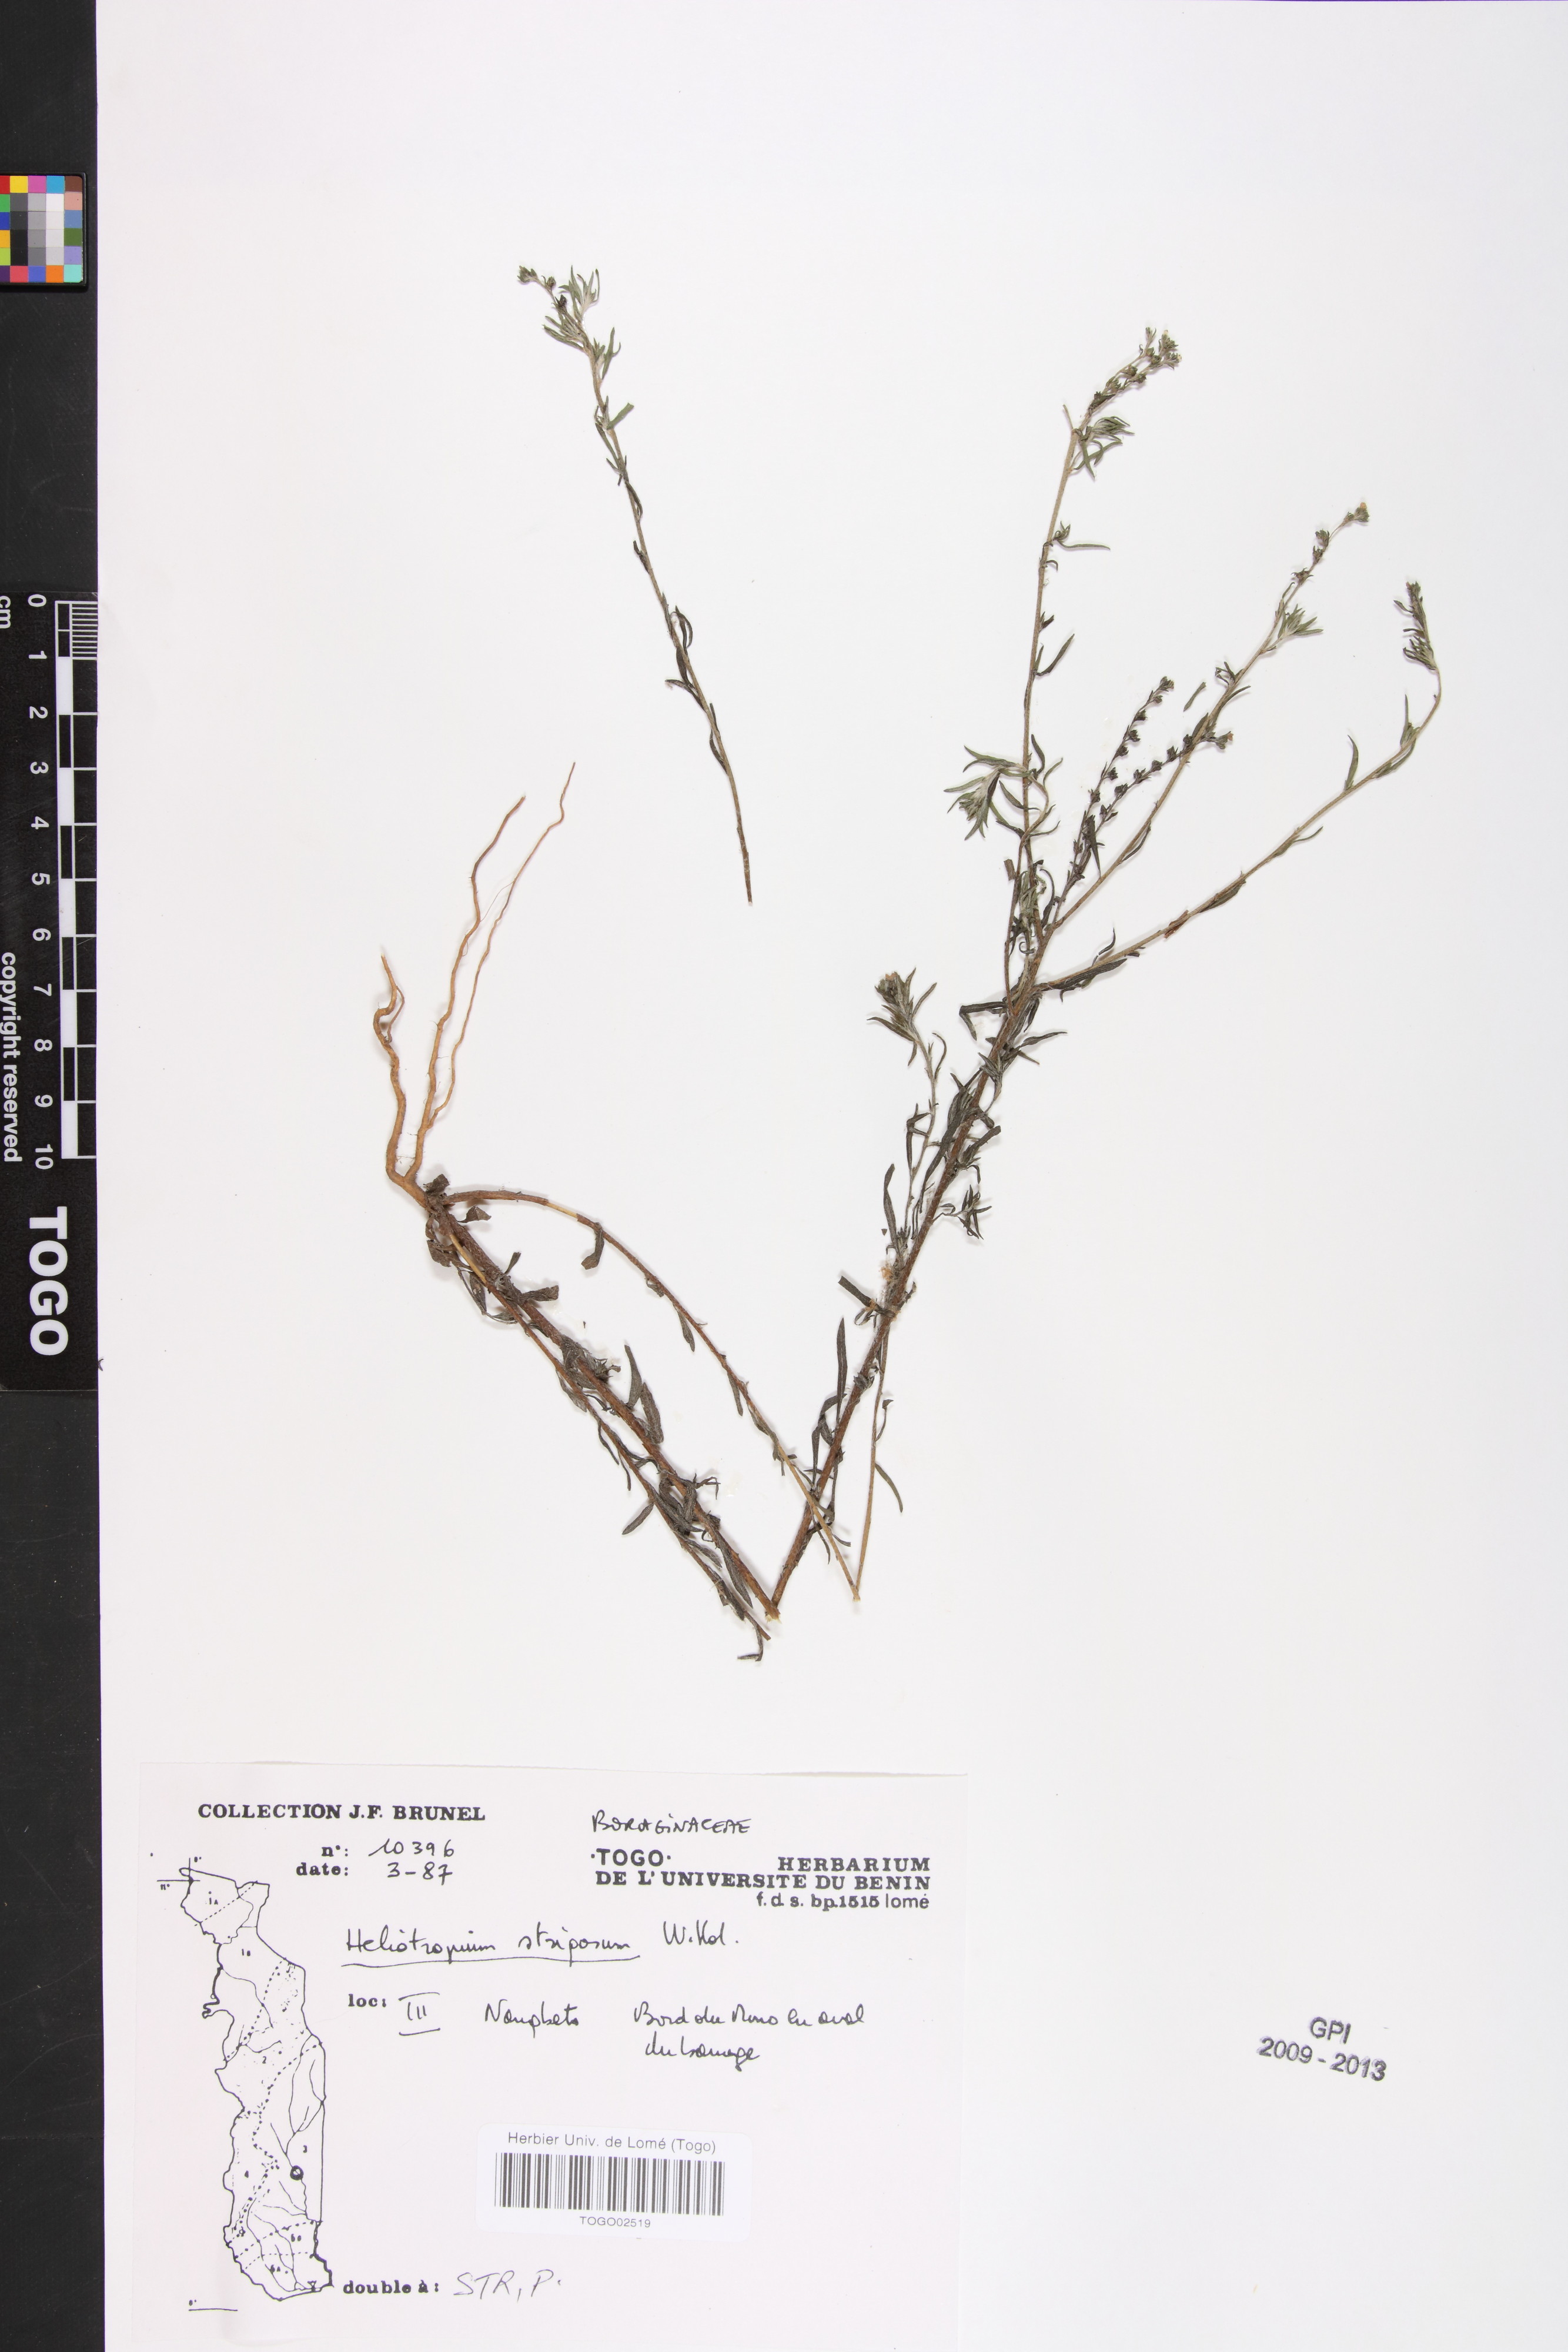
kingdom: Plantae
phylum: Tracheophyta
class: Magnoliopsida
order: Boraginales
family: Heliotropiaceae
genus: Euploca
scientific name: Euploca strigosa
